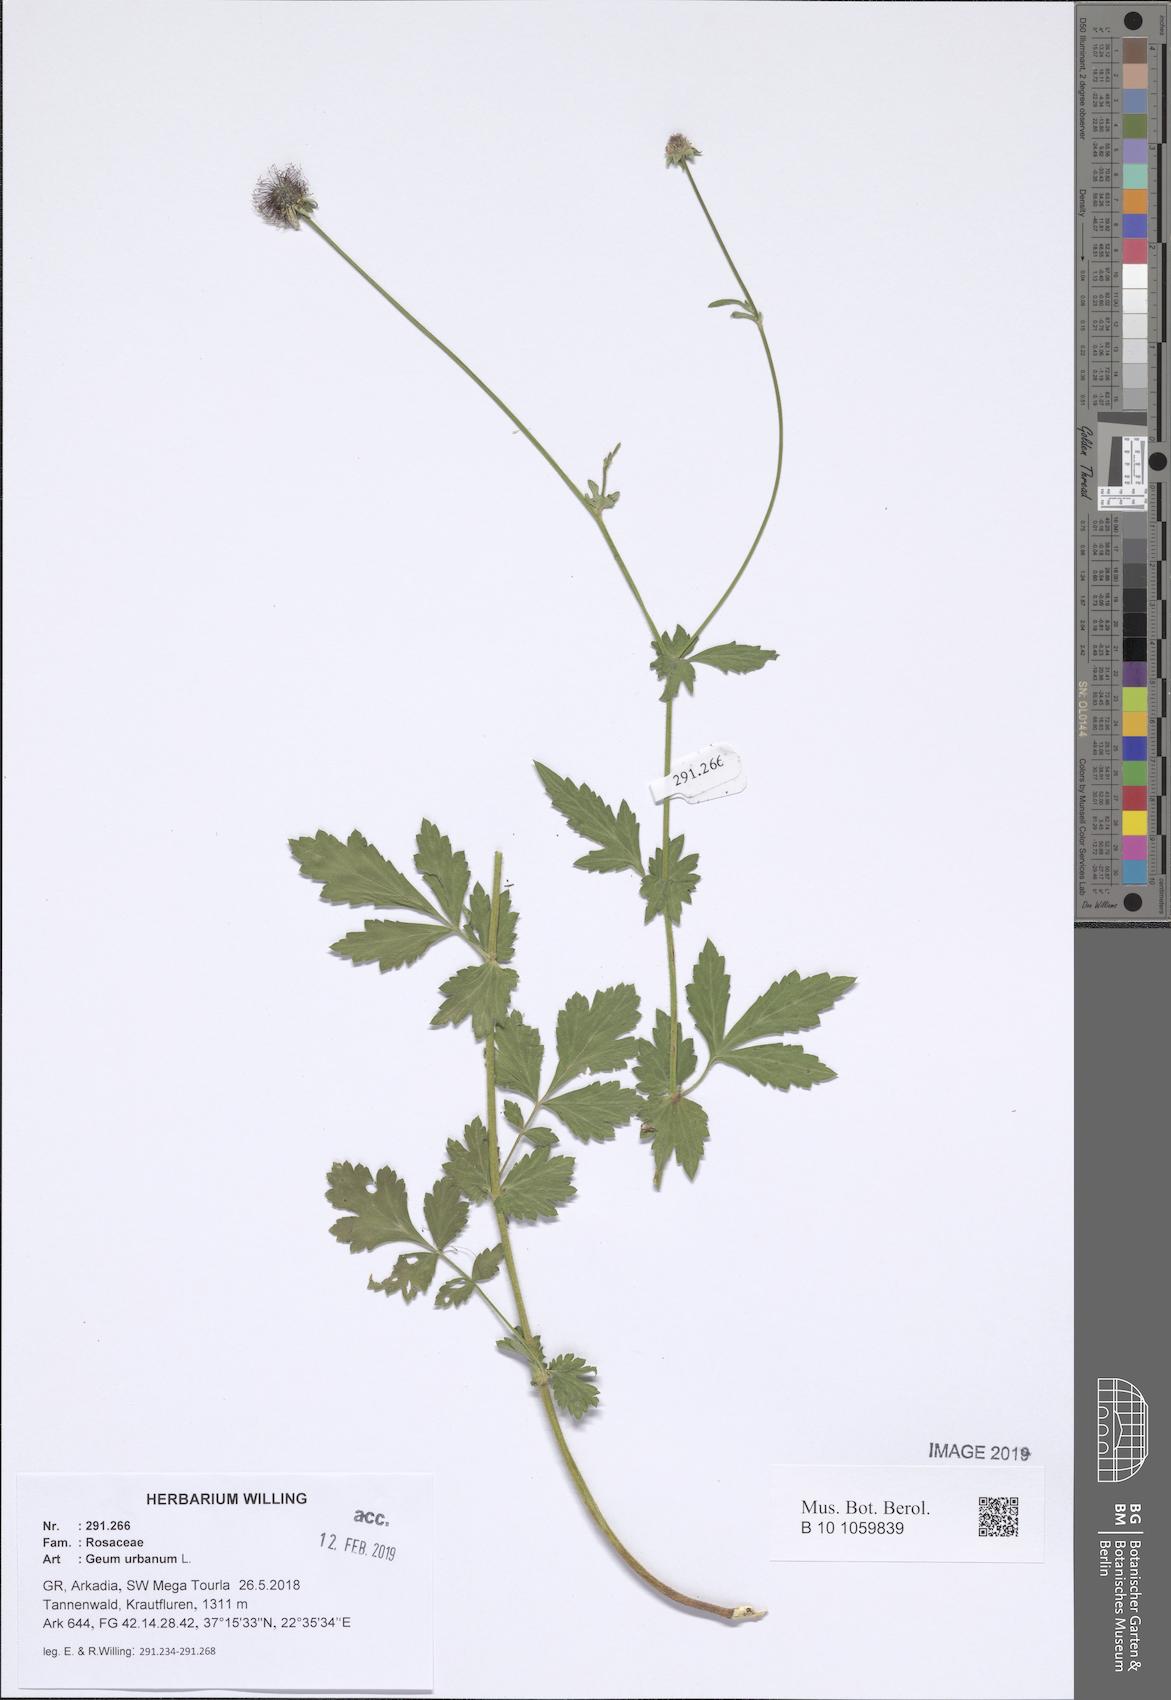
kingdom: Plantae
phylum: Tracheophyta
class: Magnoliopsida
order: Rosales
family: Rosaceae
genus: Geum
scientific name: Geum urbanum
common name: Wood avens
